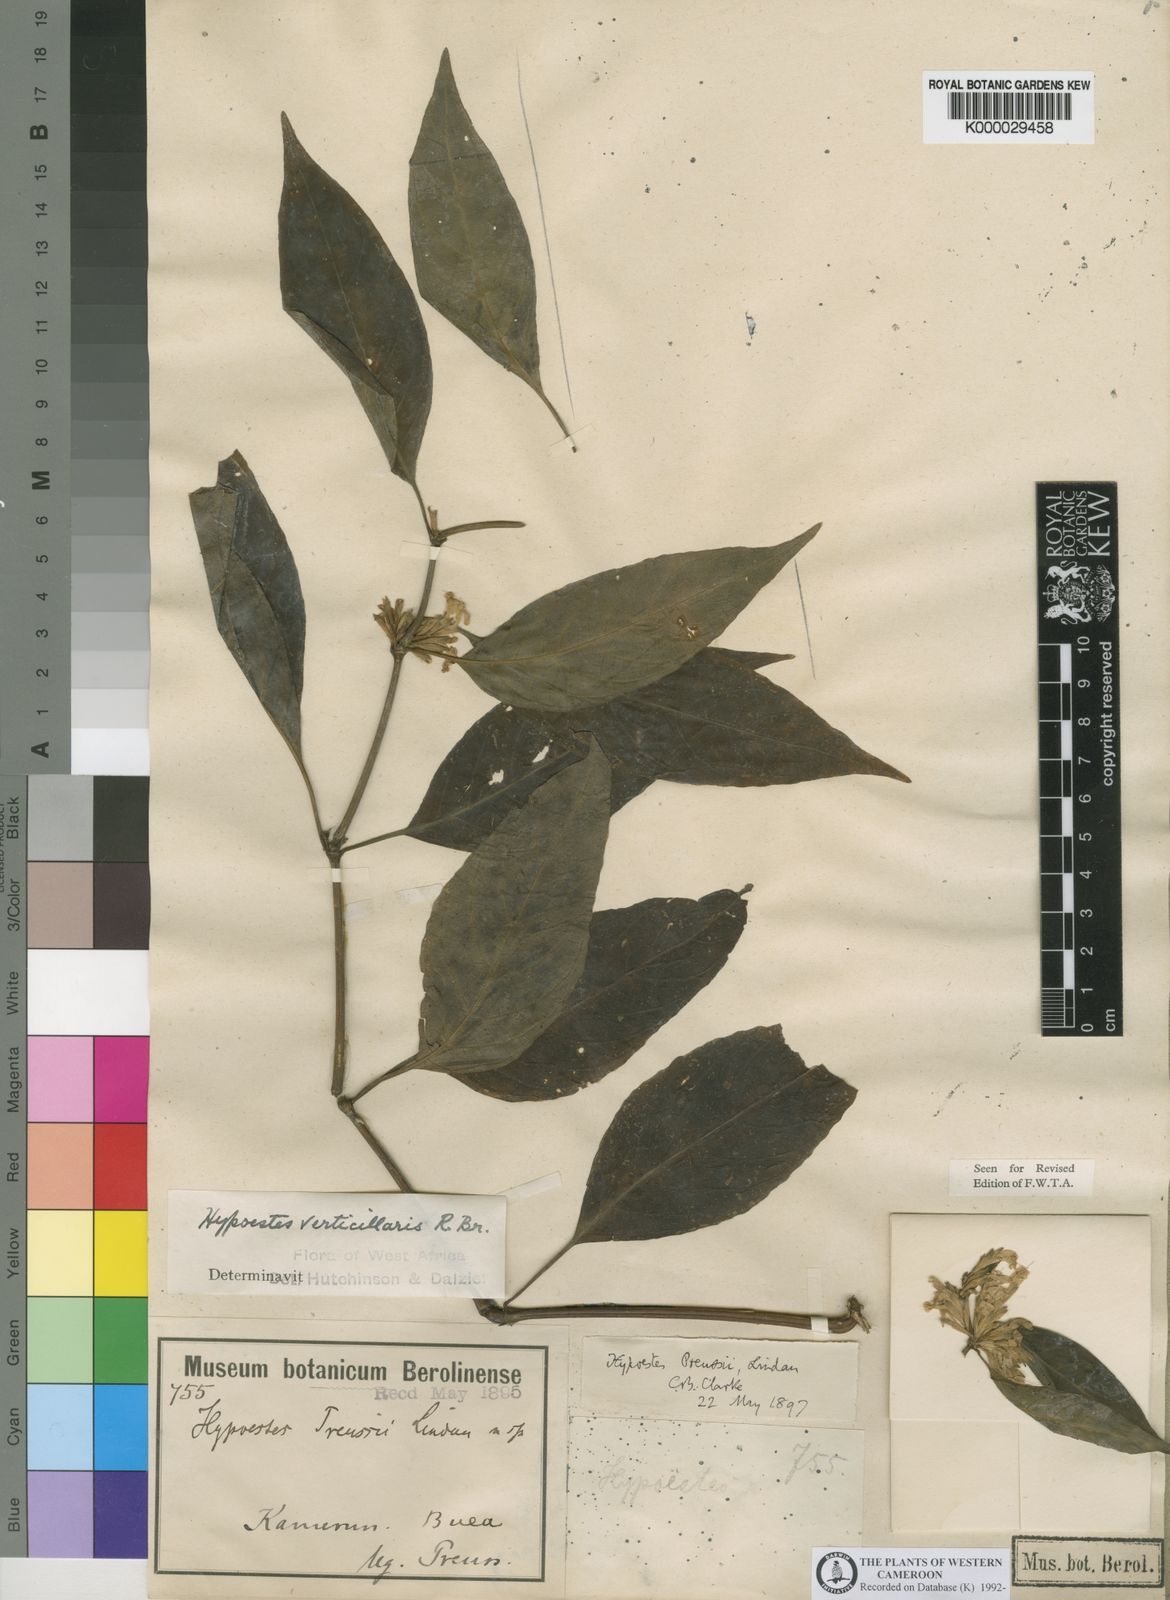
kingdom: Plantae
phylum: Tracheophyta
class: Magnoliopsida
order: Lamiales
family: Acanthaceae
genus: Hypoestes
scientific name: Hypoestes forskaolii
